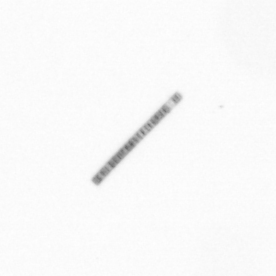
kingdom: Chromista
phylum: Ochrophyta
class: Bacillariophyceae
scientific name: Bacillariophyceae
